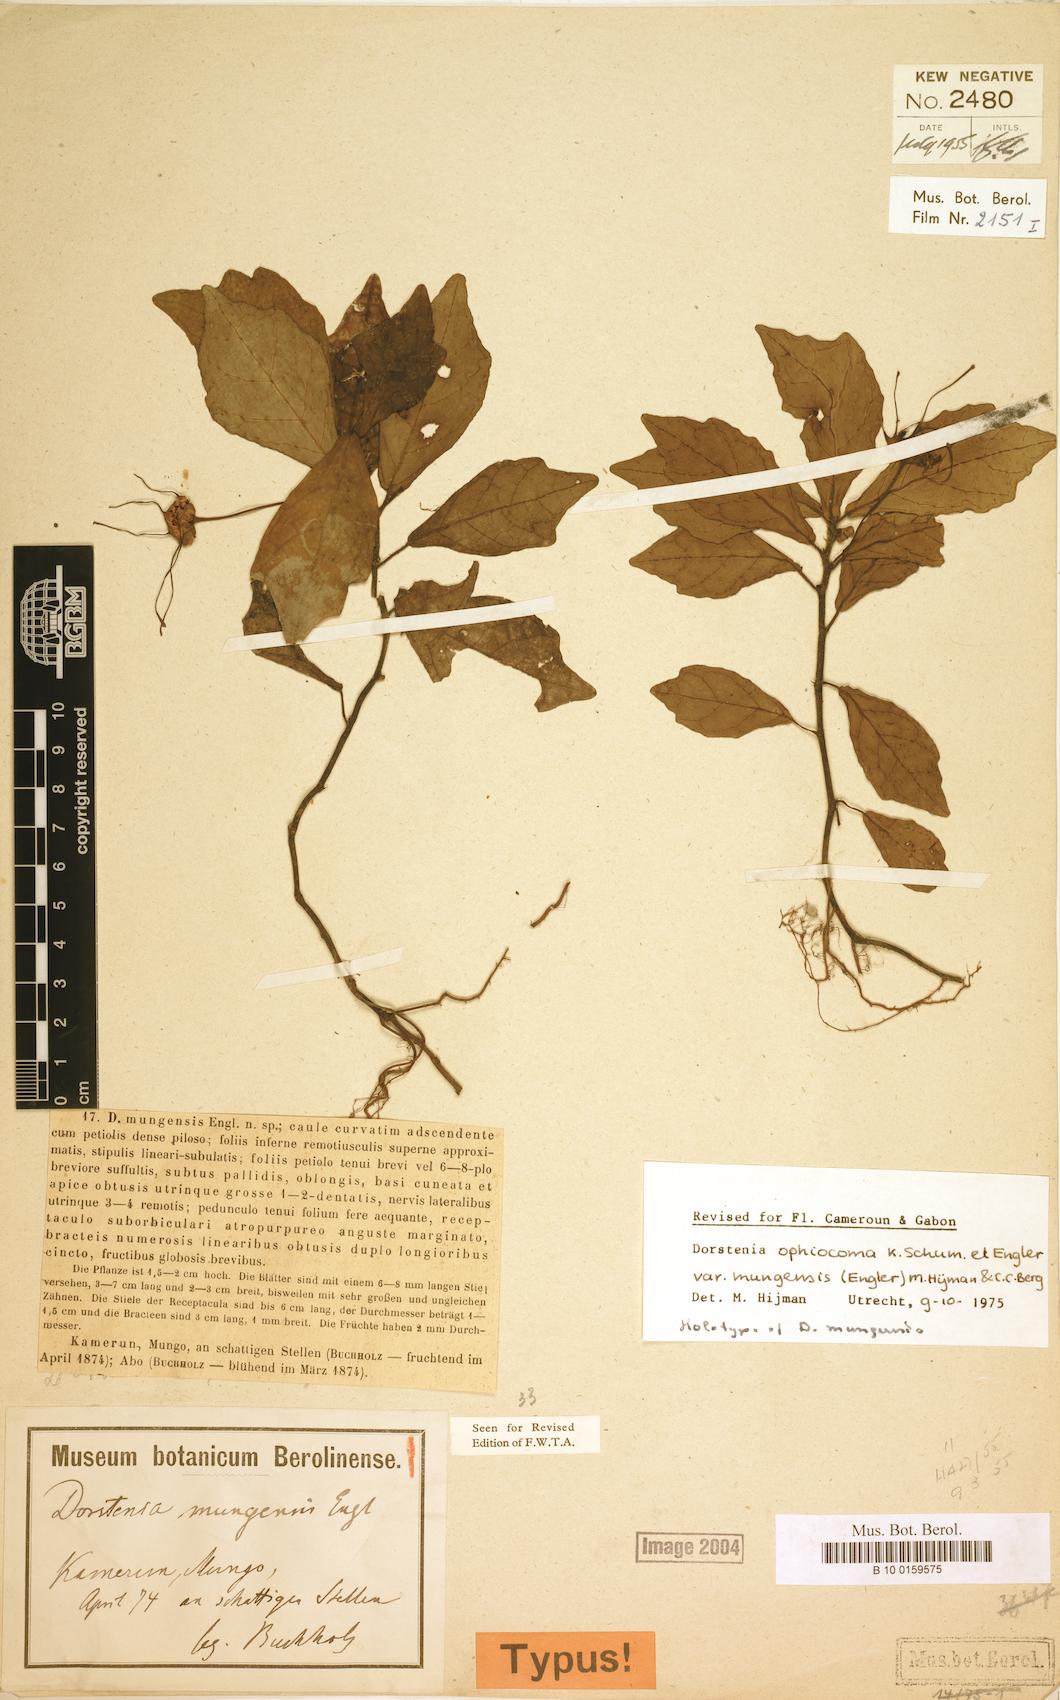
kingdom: Plantae
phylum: Tracheophyta
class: Magnoliopsida
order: Rosales
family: Moraceae
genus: Dorstenia
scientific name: Dorstenia mannii
